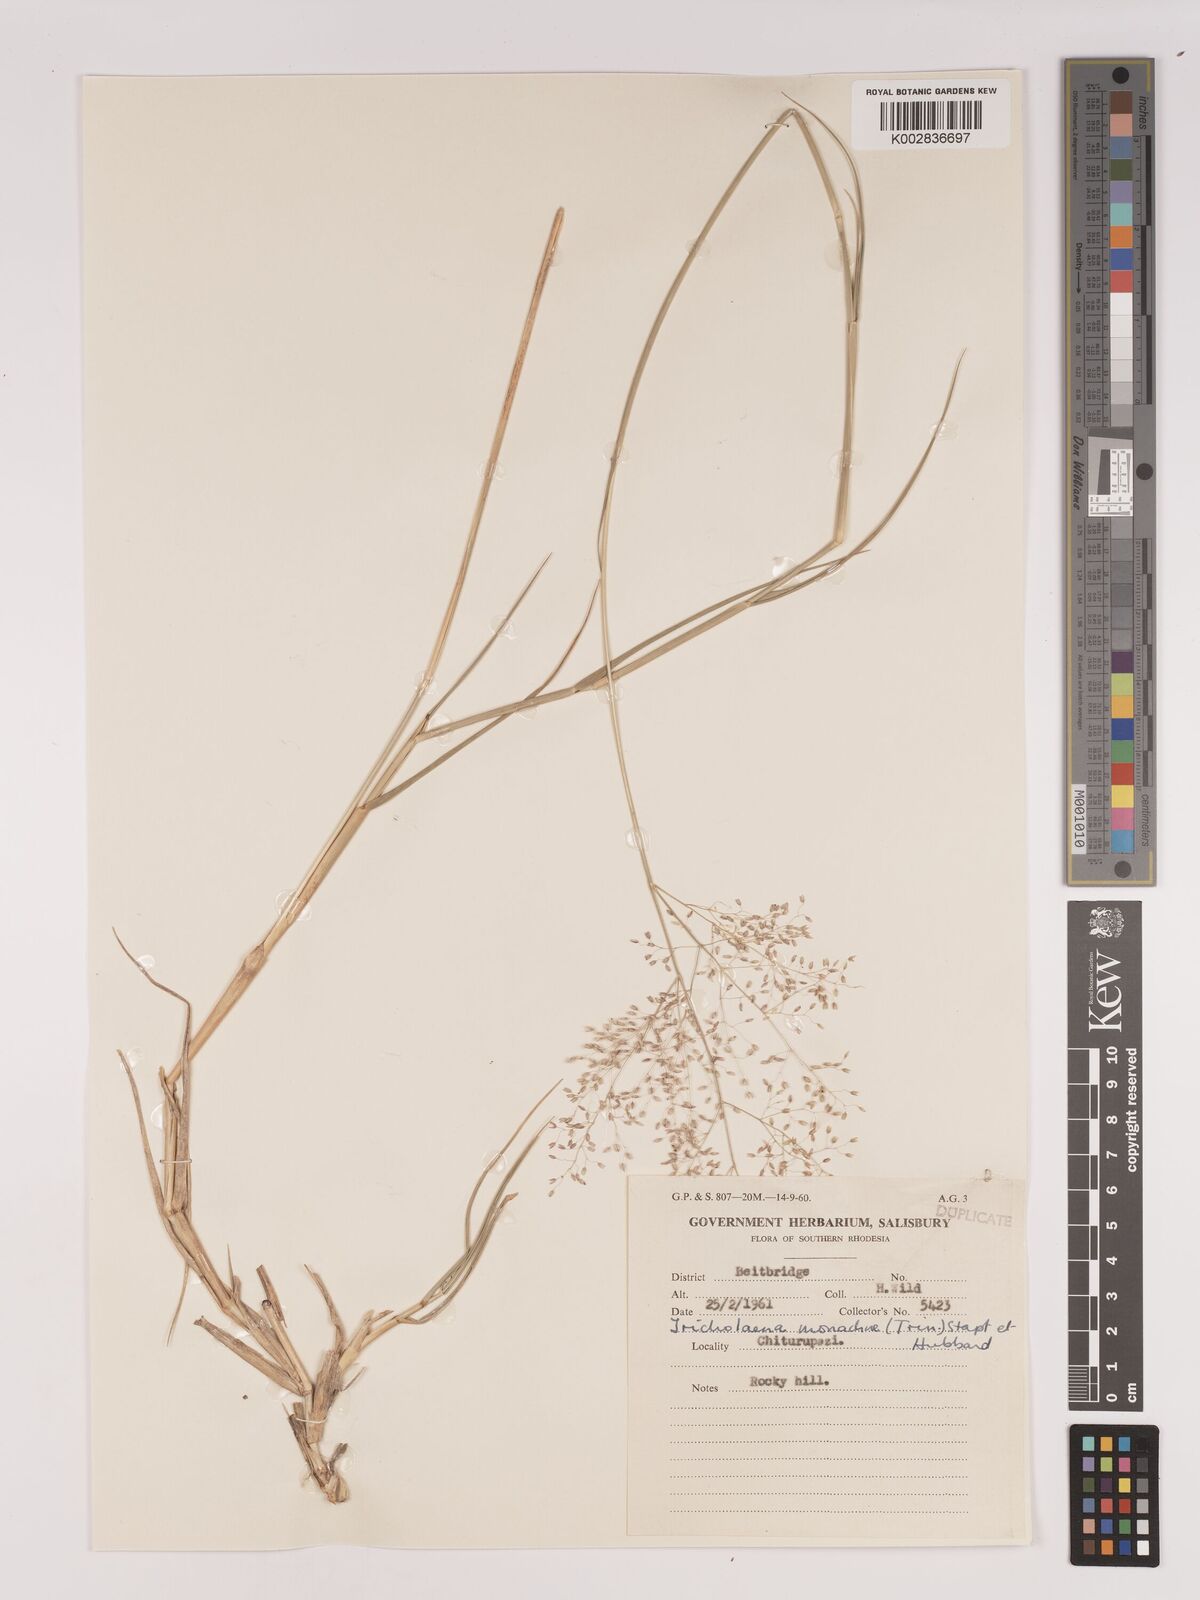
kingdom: Plantae
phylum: Tracheophyta
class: Liliopsida
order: Poales
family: Poaceae
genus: Tricholaena
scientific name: Tricholaena monachne
